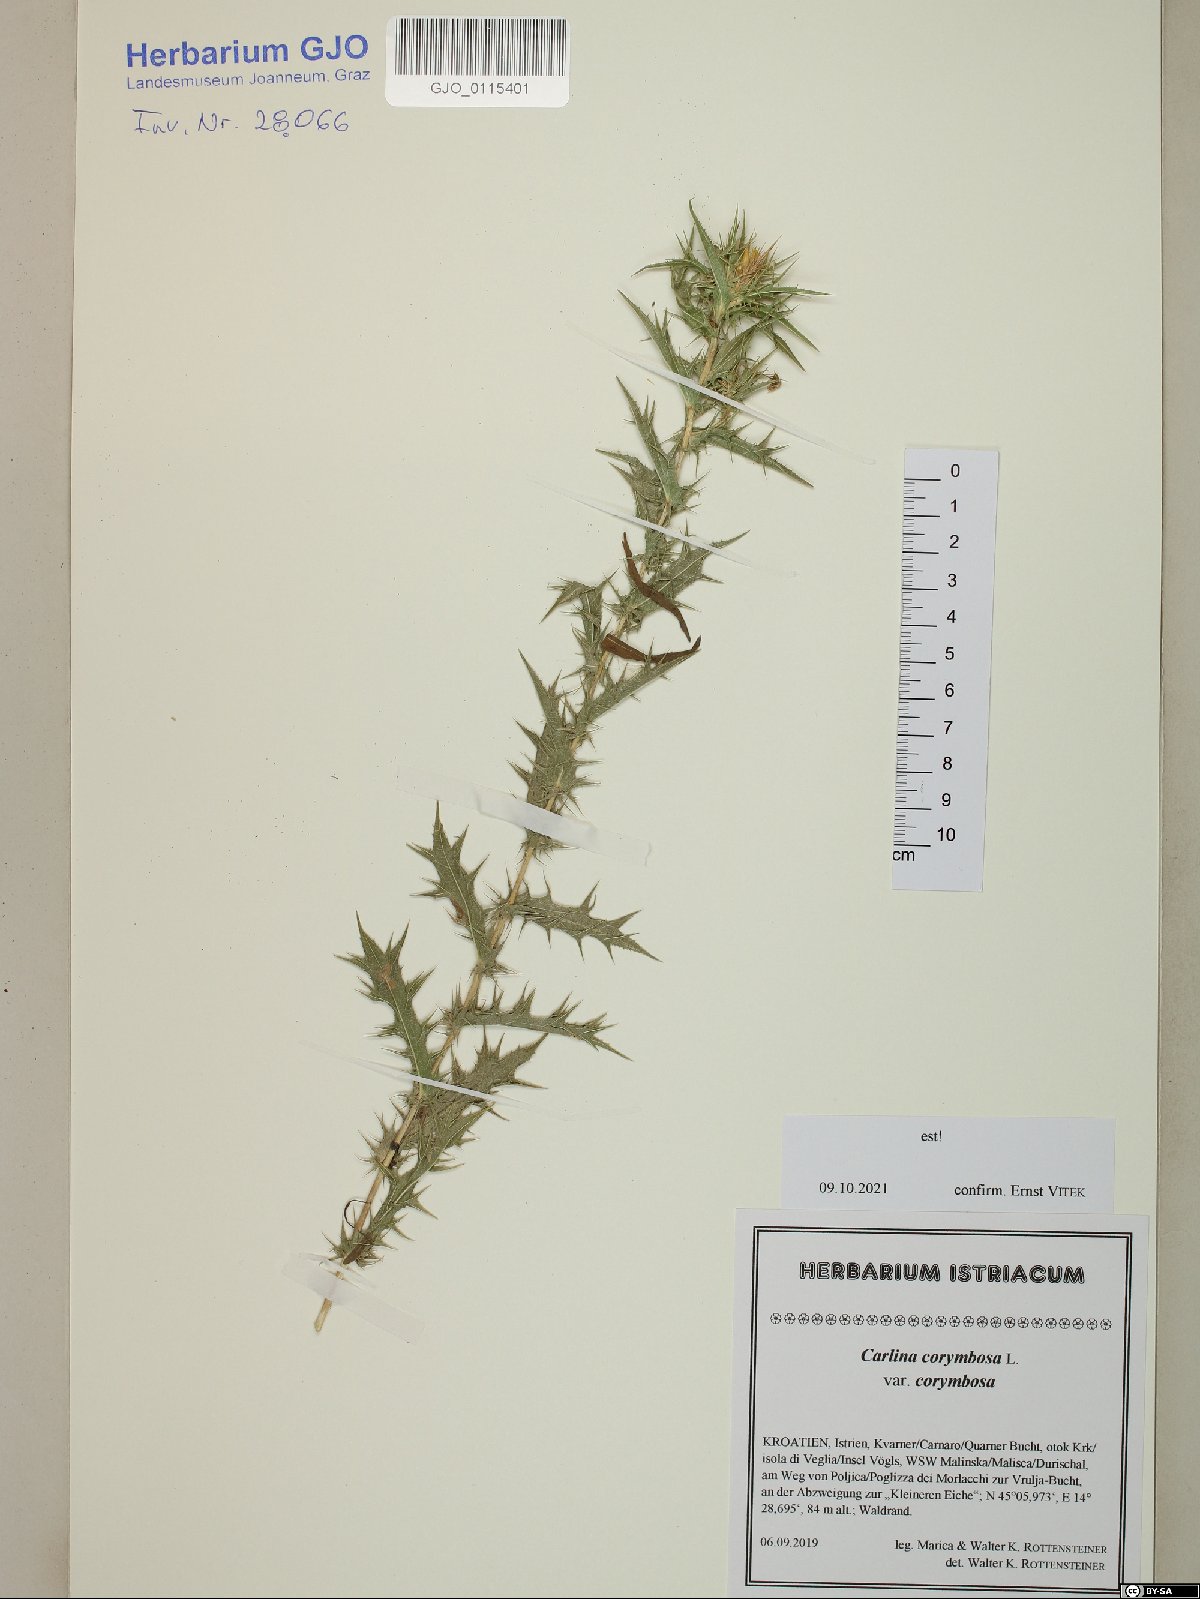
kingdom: Plantae
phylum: Tracheophyta
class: Magnoliopsida
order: Asterales
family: Asteraceae
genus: Carlina
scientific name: Carlina corymbosa
